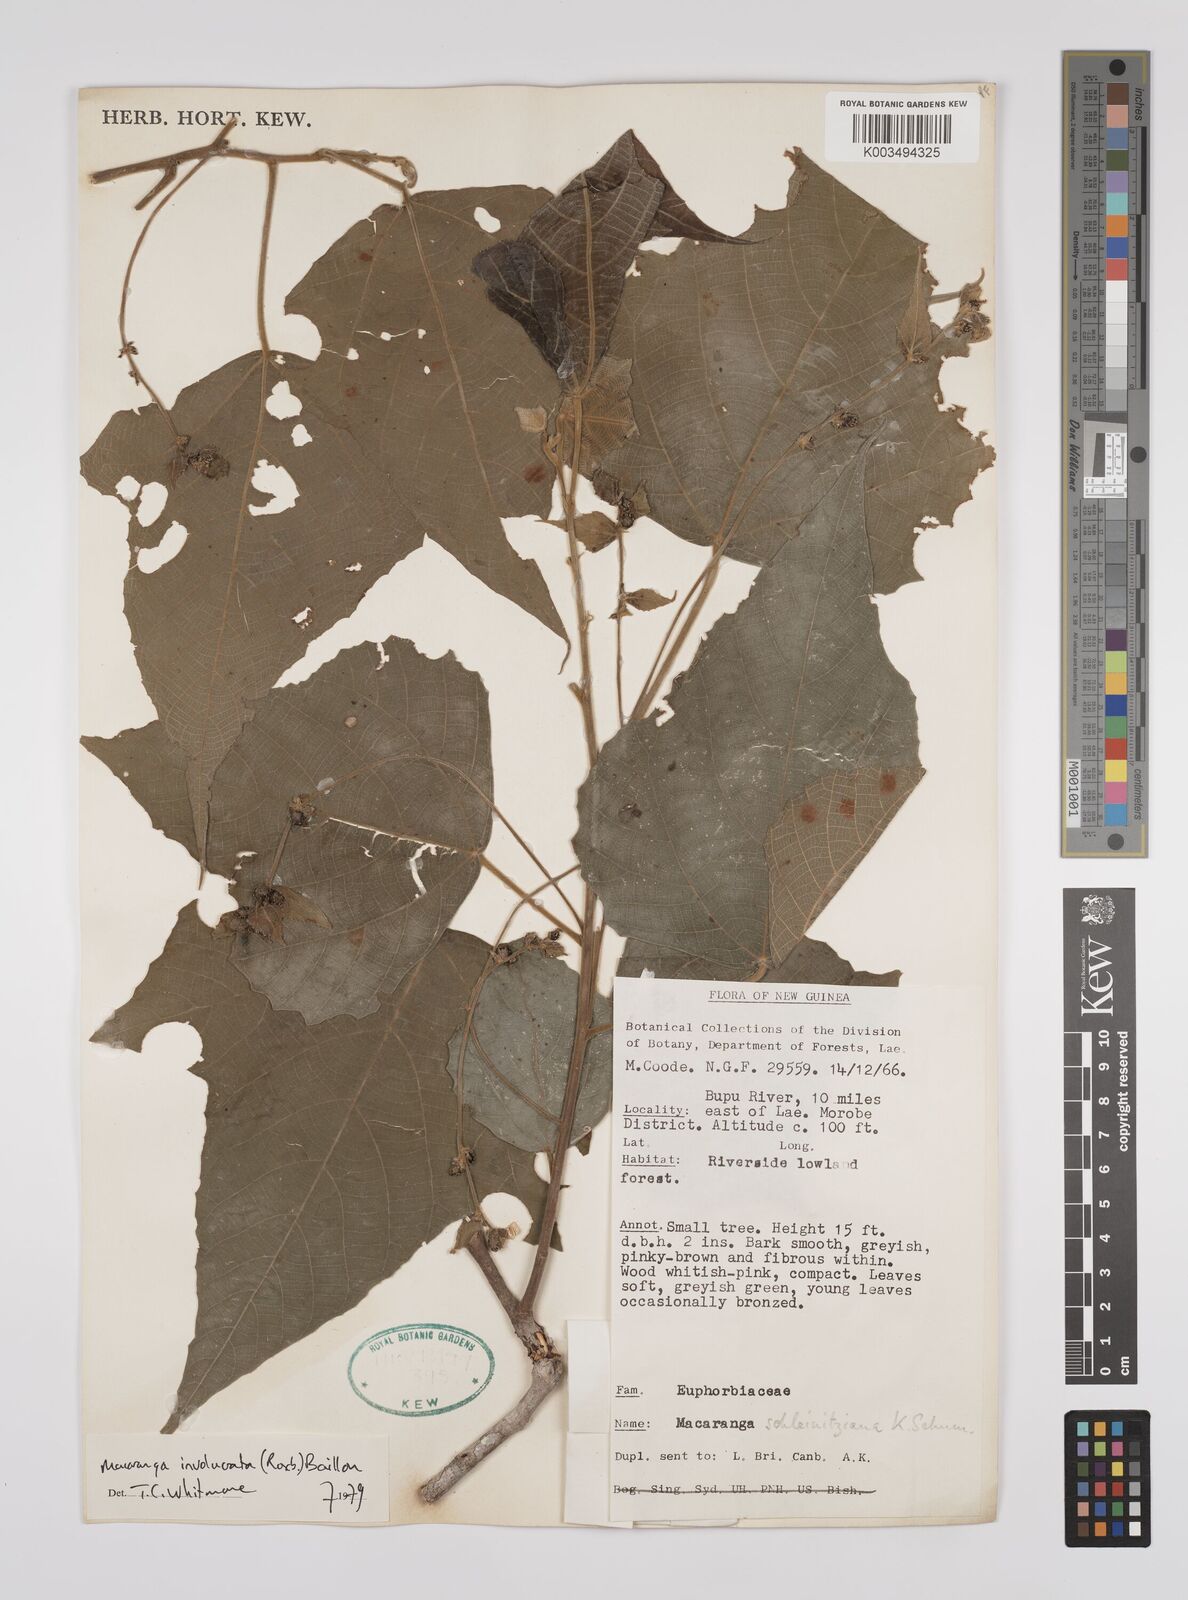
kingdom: Plantae
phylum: Tracheophyta
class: Magnoliopsida
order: Malpighiales
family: Euphorbiaceae
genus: Macaranga
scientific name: Macaranga involucrata
